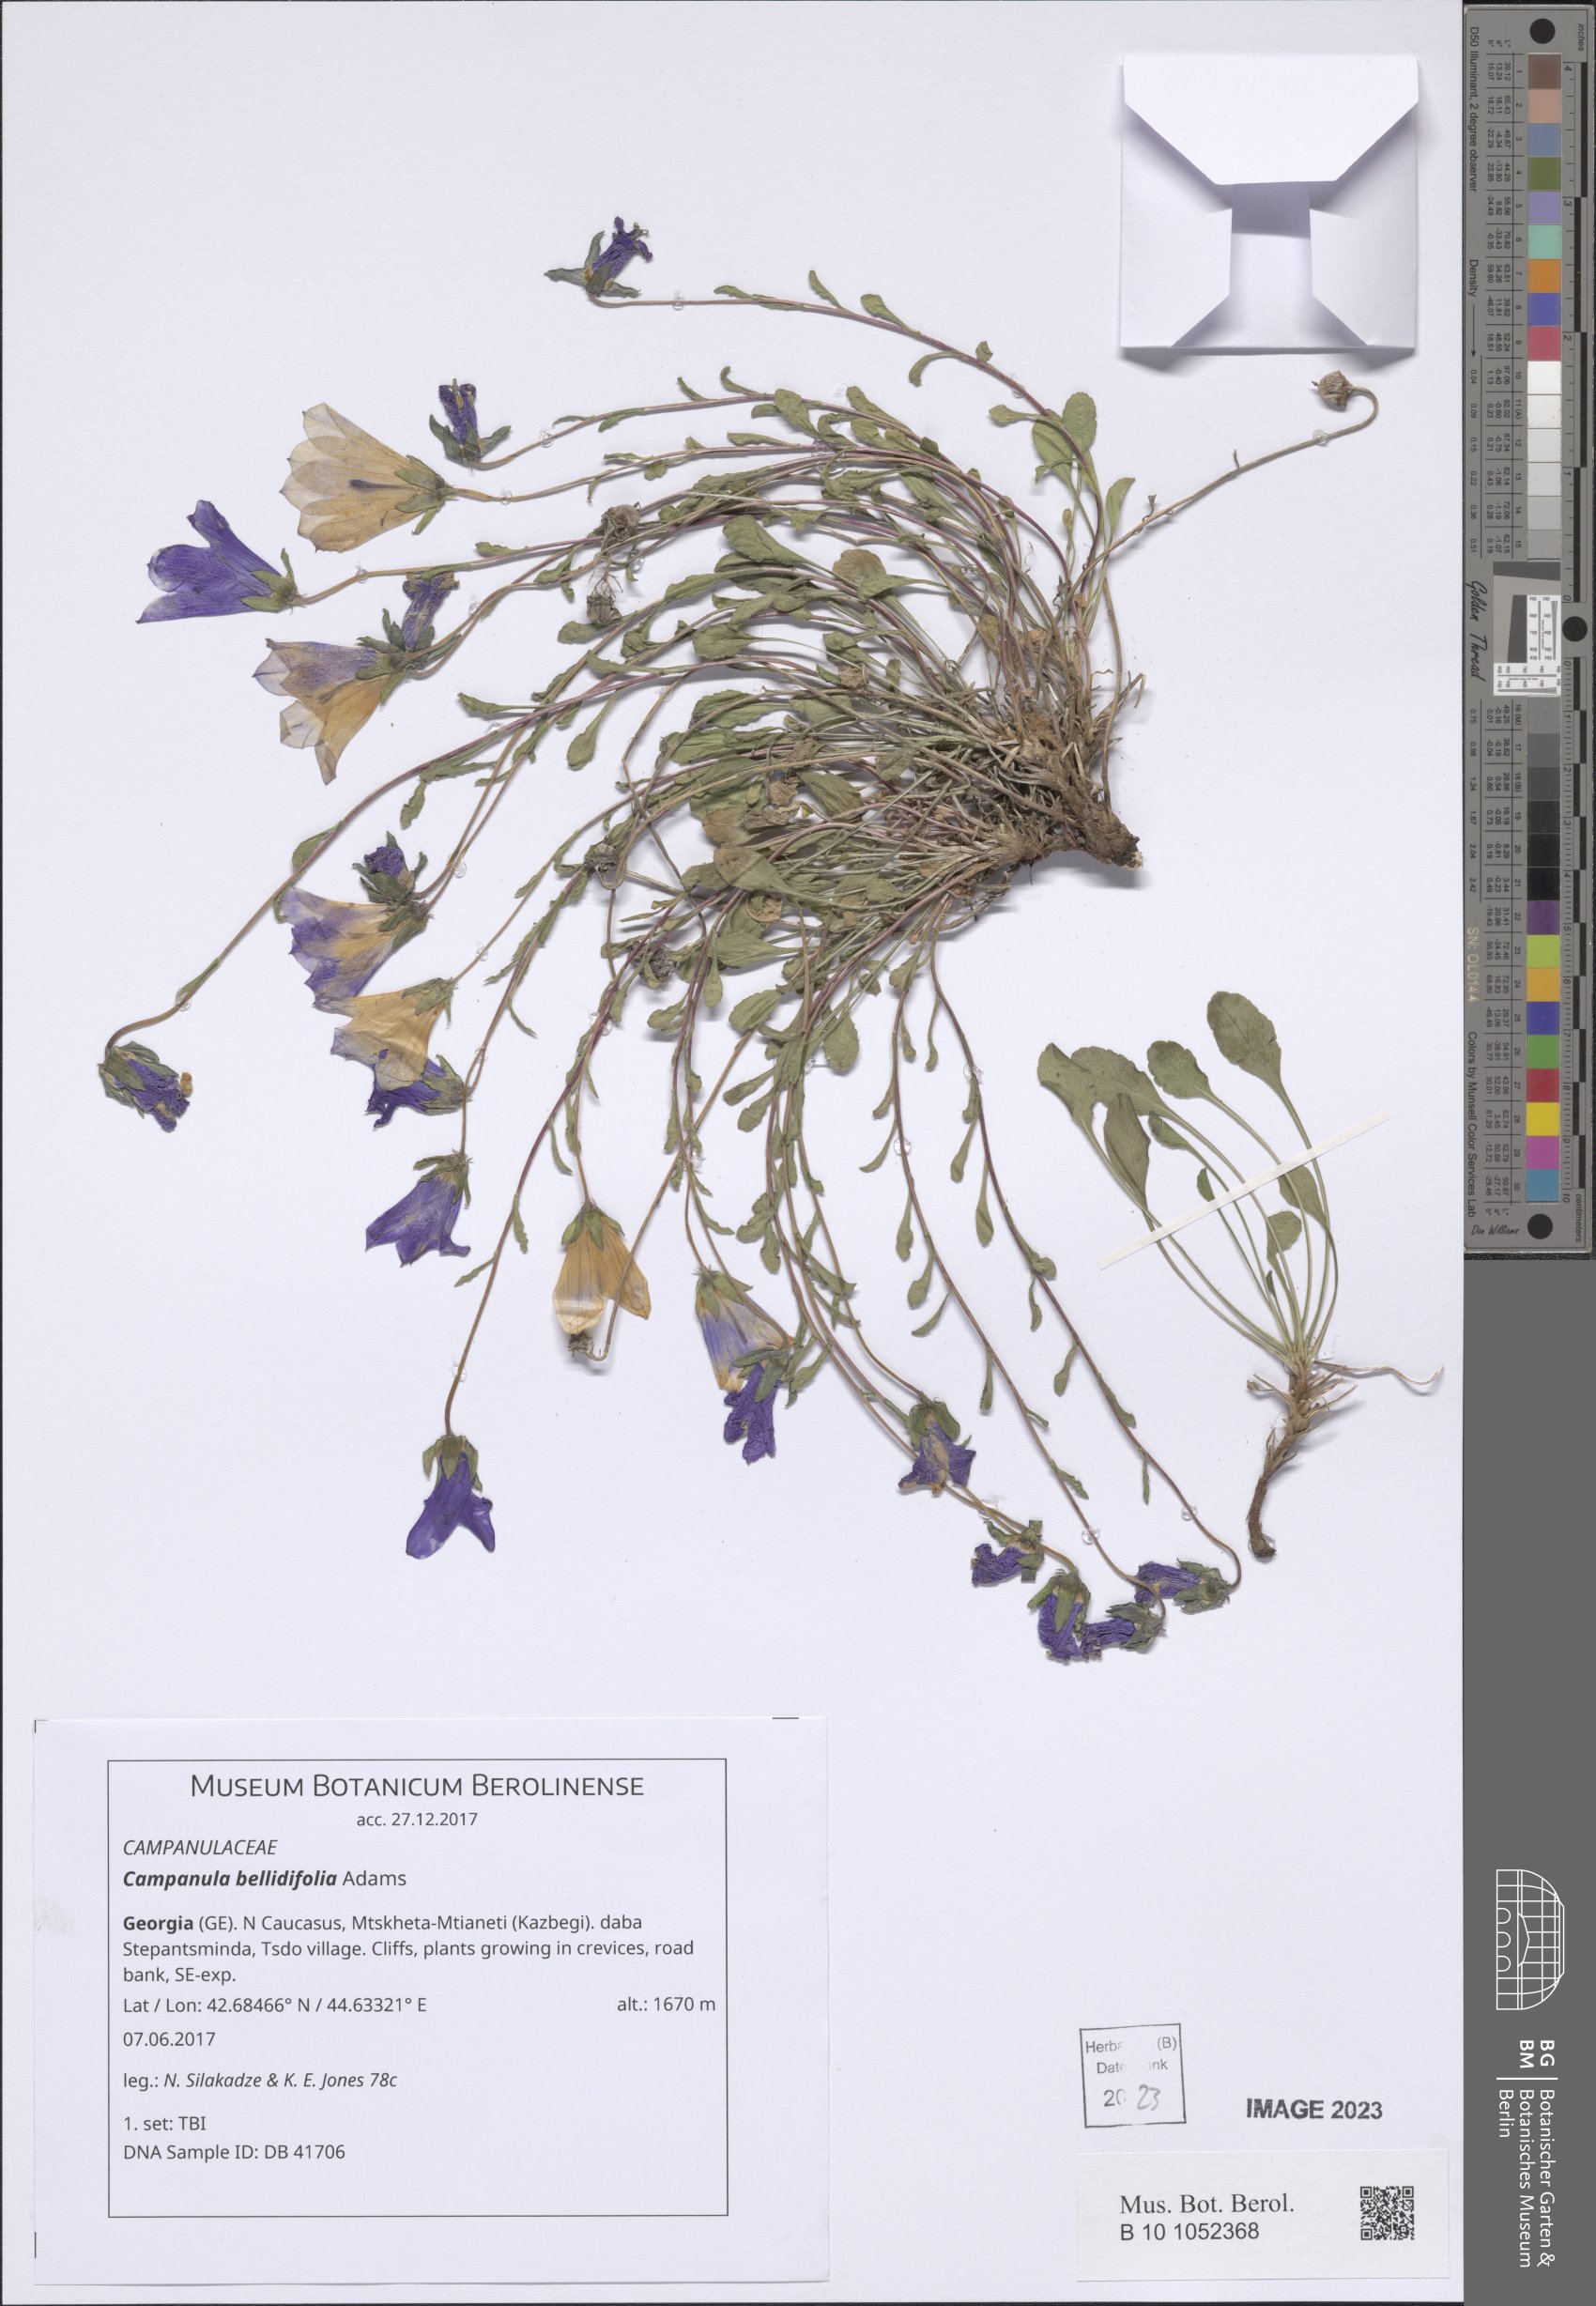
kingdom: Plantae
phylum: Tracheophyta
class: Magnoliopsida
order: Asterales
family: Campanulaceae
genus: Campanula
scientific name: Campanula bellidifolia
